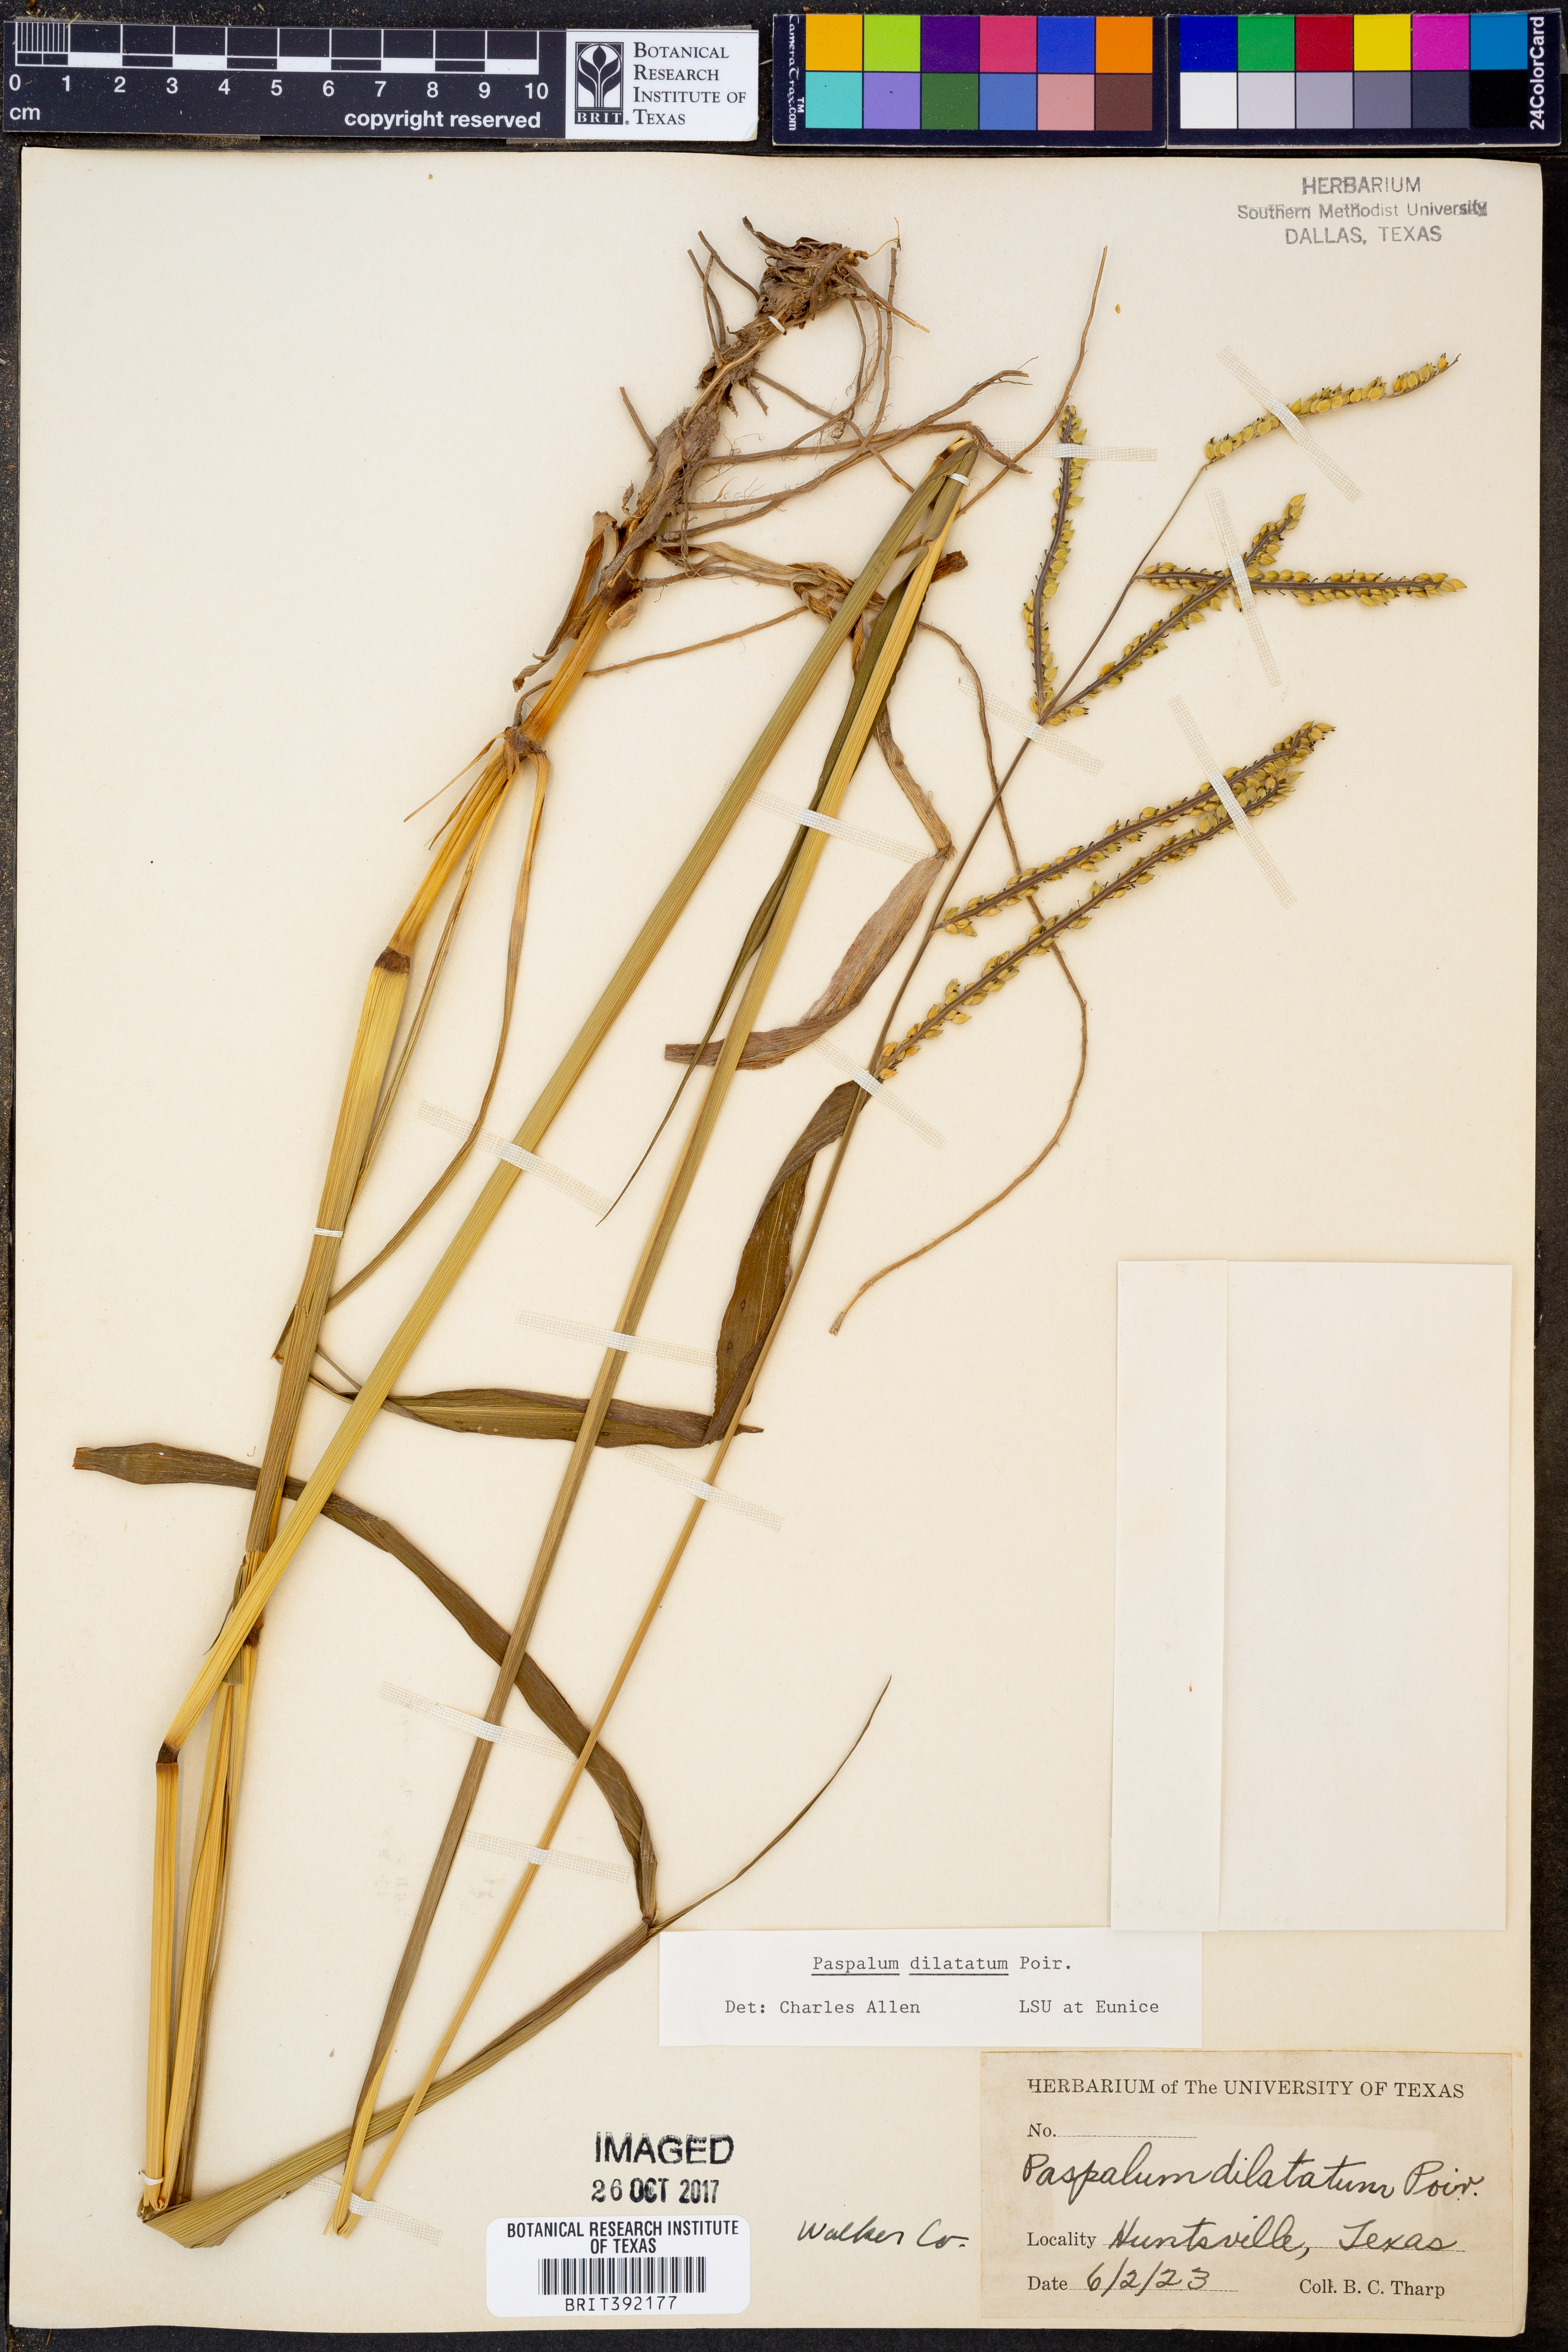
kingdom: Plantae
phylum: Tracheophyta
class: Liliopsida
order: Poales
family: Poaceae
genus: Paspalum
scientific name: Paspalum dilatatum
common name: Dallisgrass
